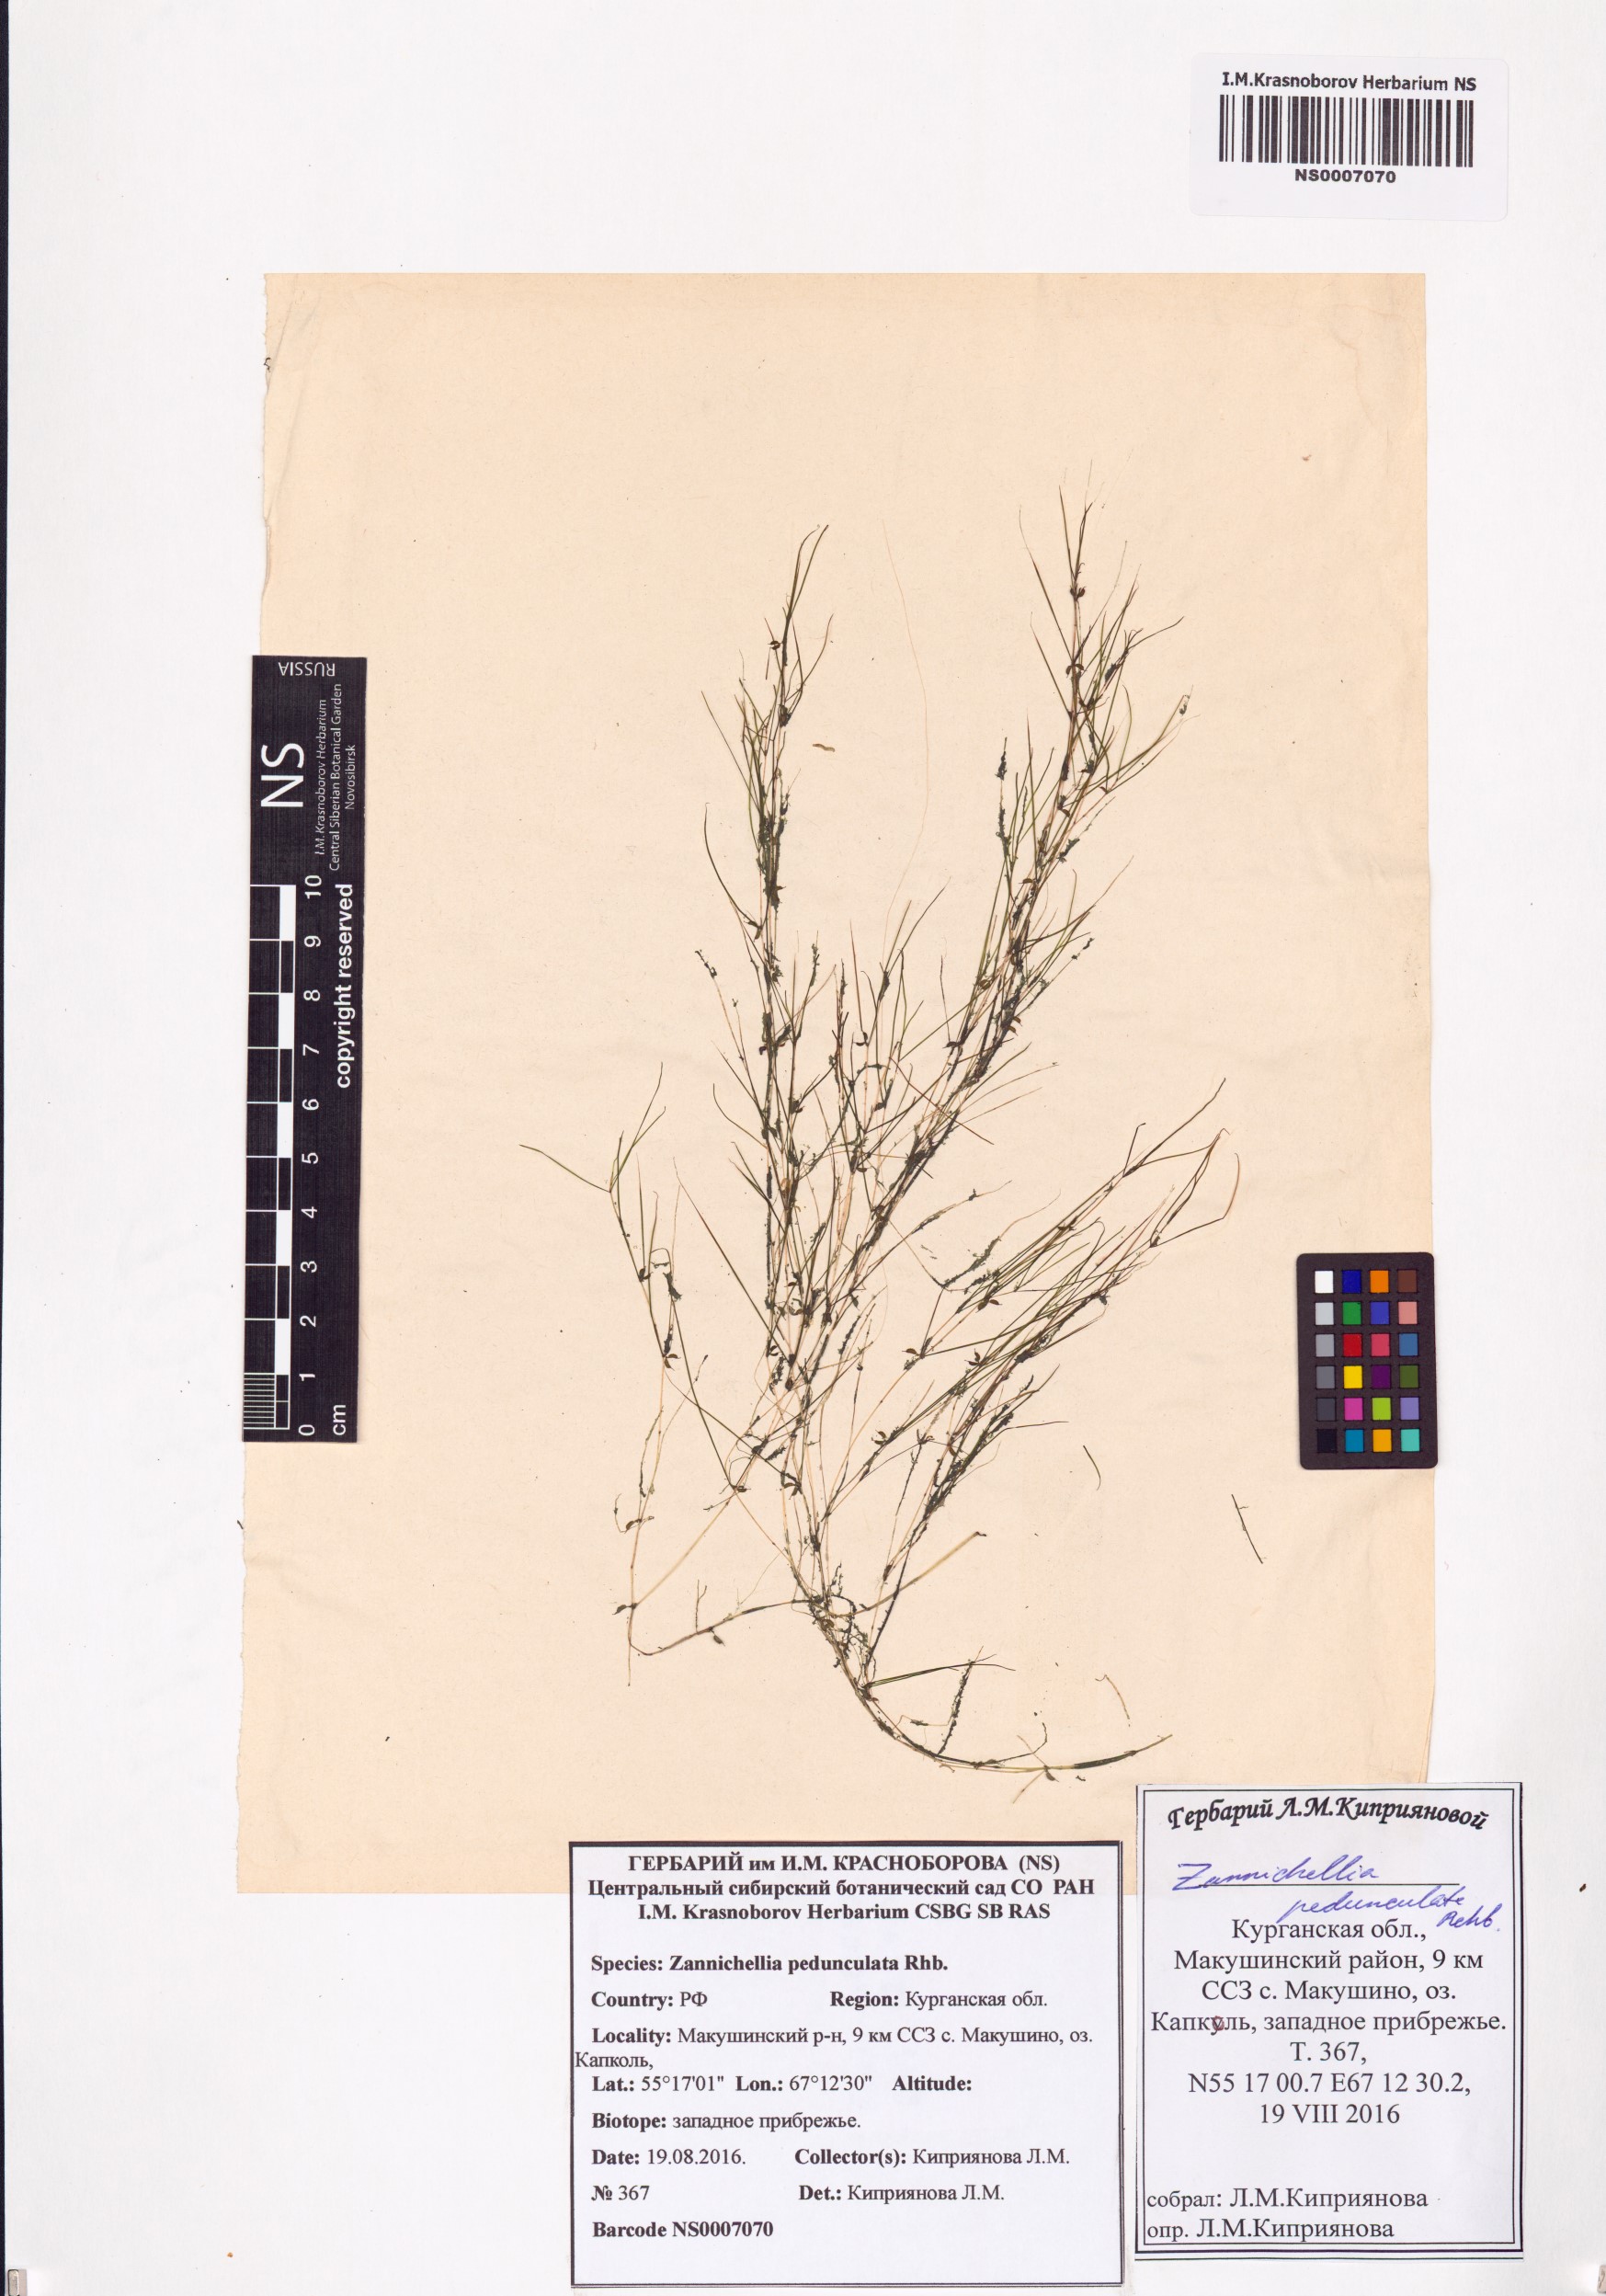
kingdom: Plantae
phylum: Tracheophyta
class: Liliopsida
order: Alismatales
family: Potamogetonaceae
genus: Zannichellia
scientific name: Zannichellia palustris
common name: Horned pondweed
